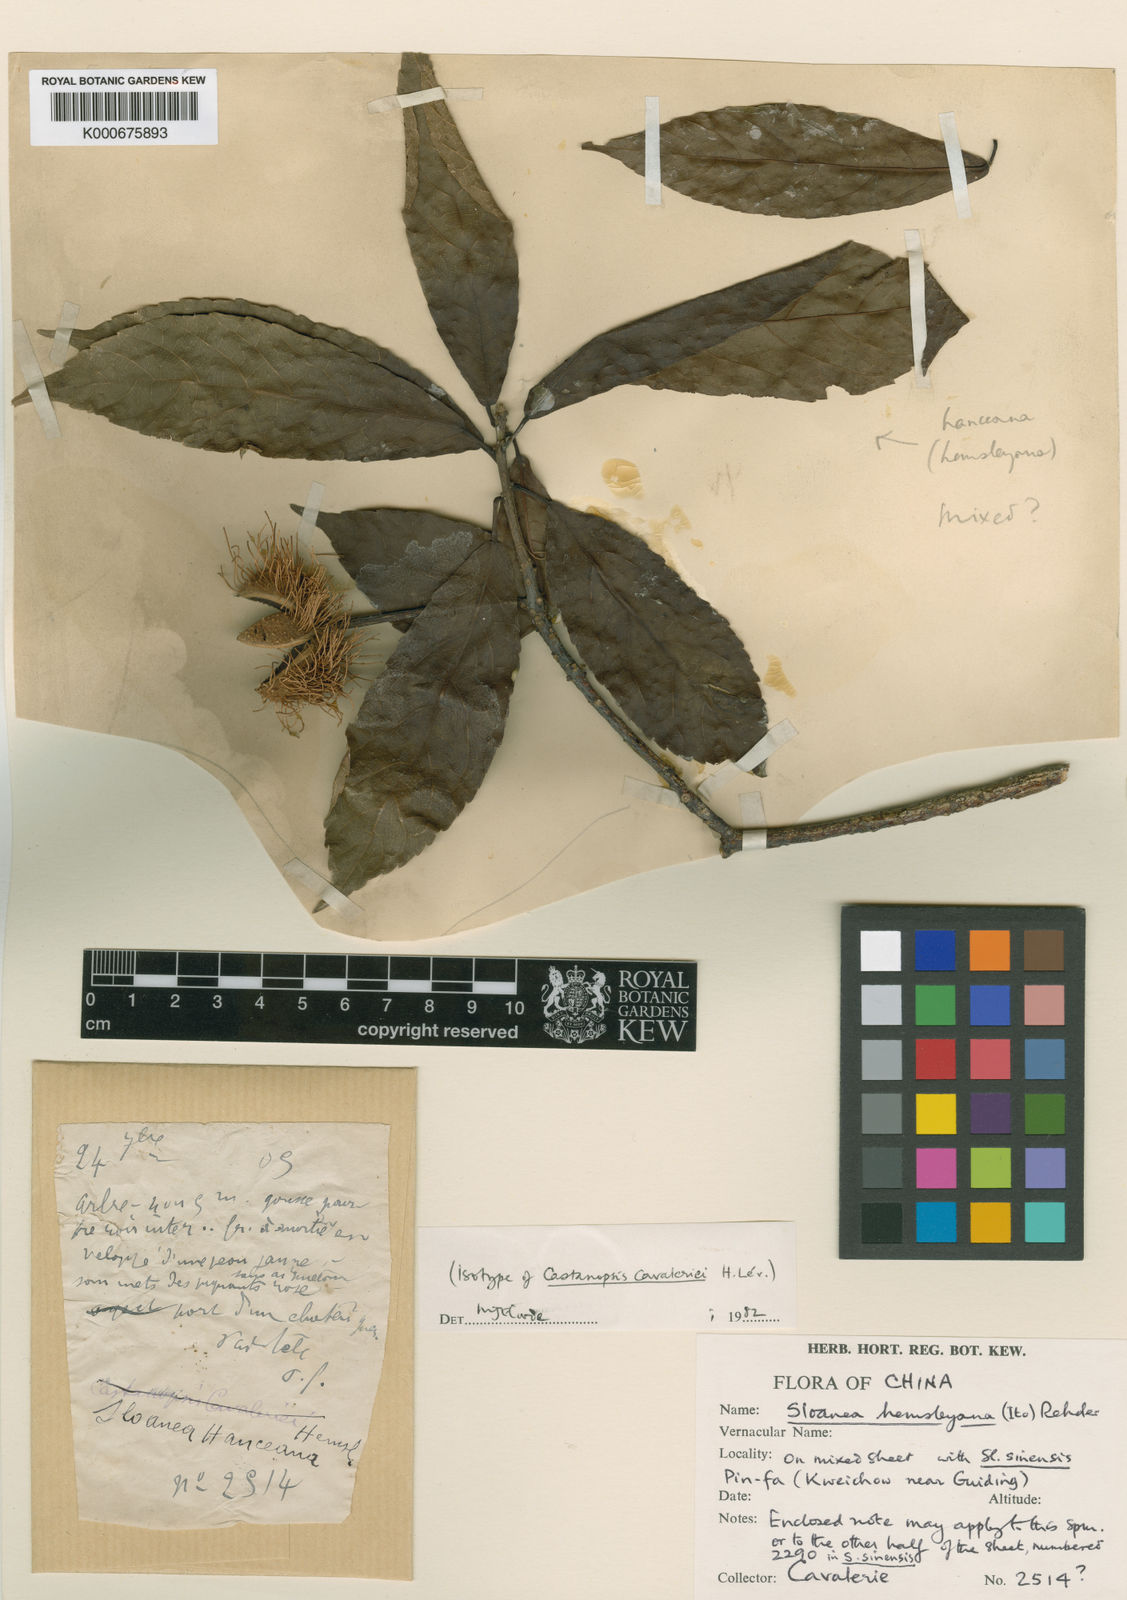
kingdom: Plantae
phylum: Tracheophyta
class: Magnoliopsida
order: Oxalidales
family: Elaeocarpaceae
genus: Sloanea
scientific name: Sloanea hemsleyana
